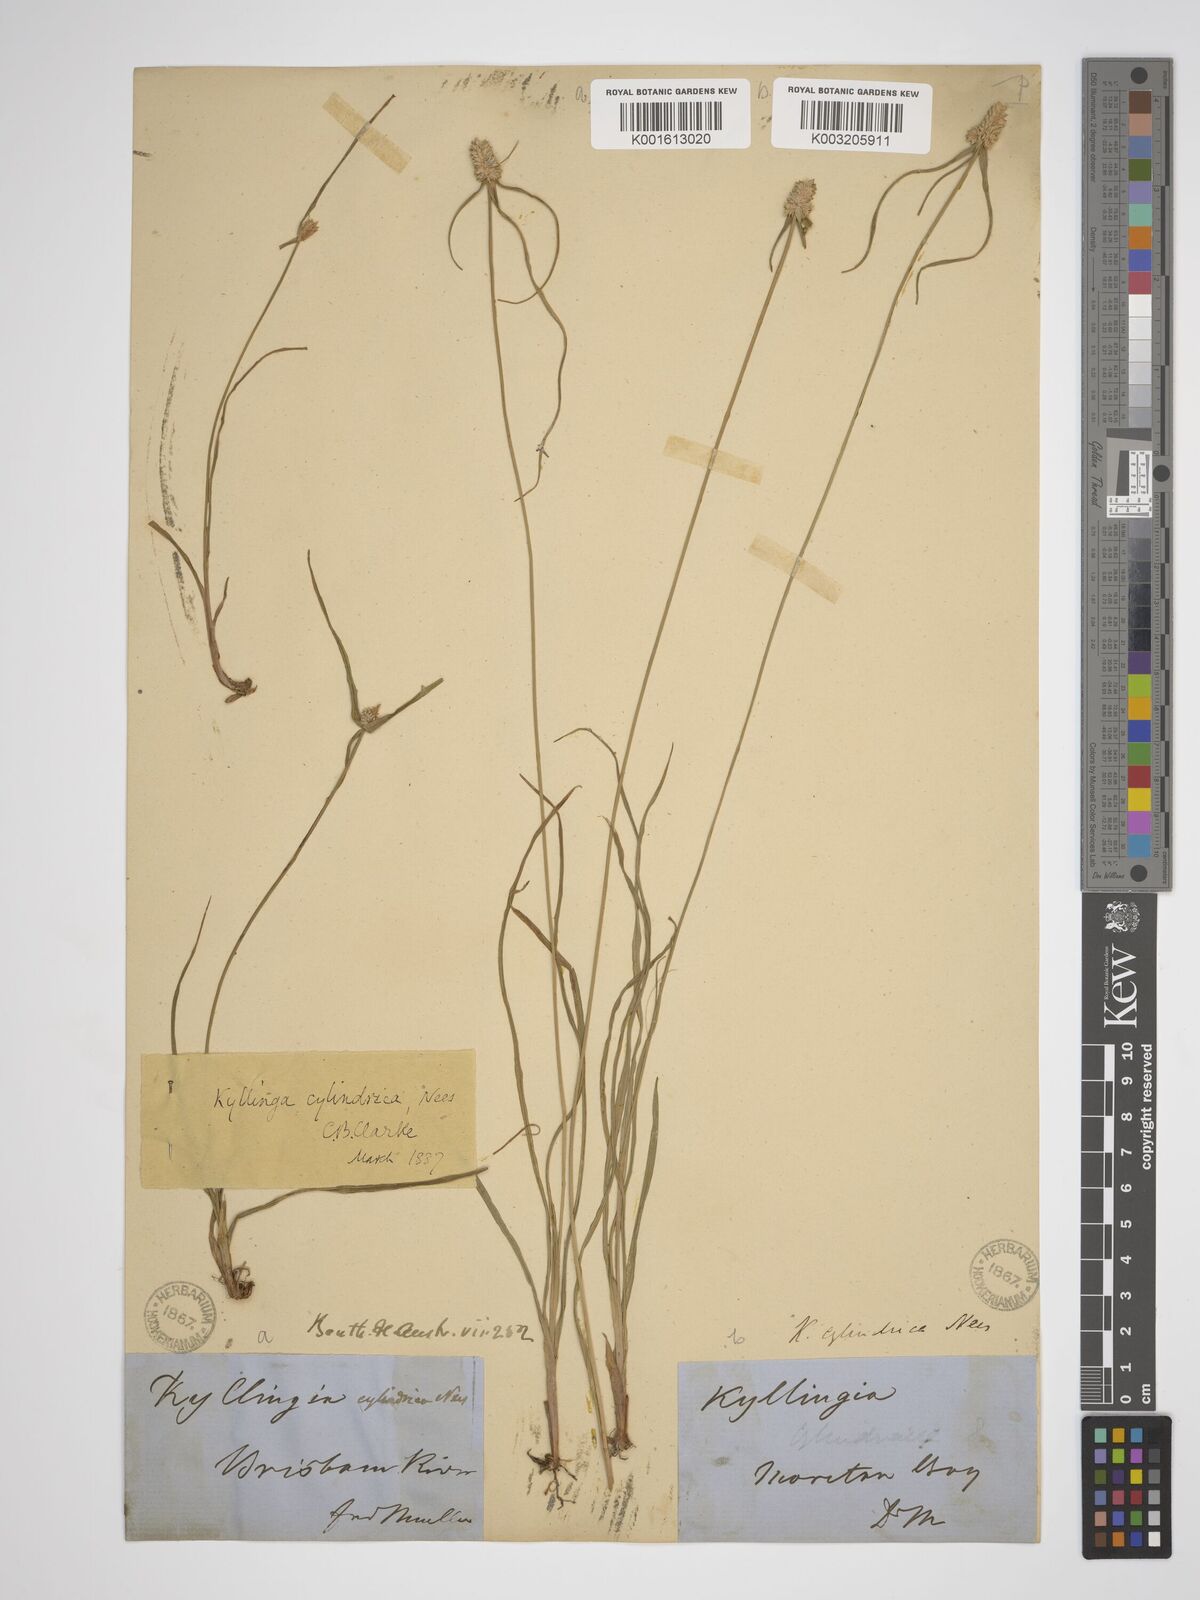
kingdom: Plantae
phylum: Tracheophyta
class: Liliopsida
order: Poales
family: Cyperaceae
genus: Cyperus
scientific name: Cyperus sesquiflorus
